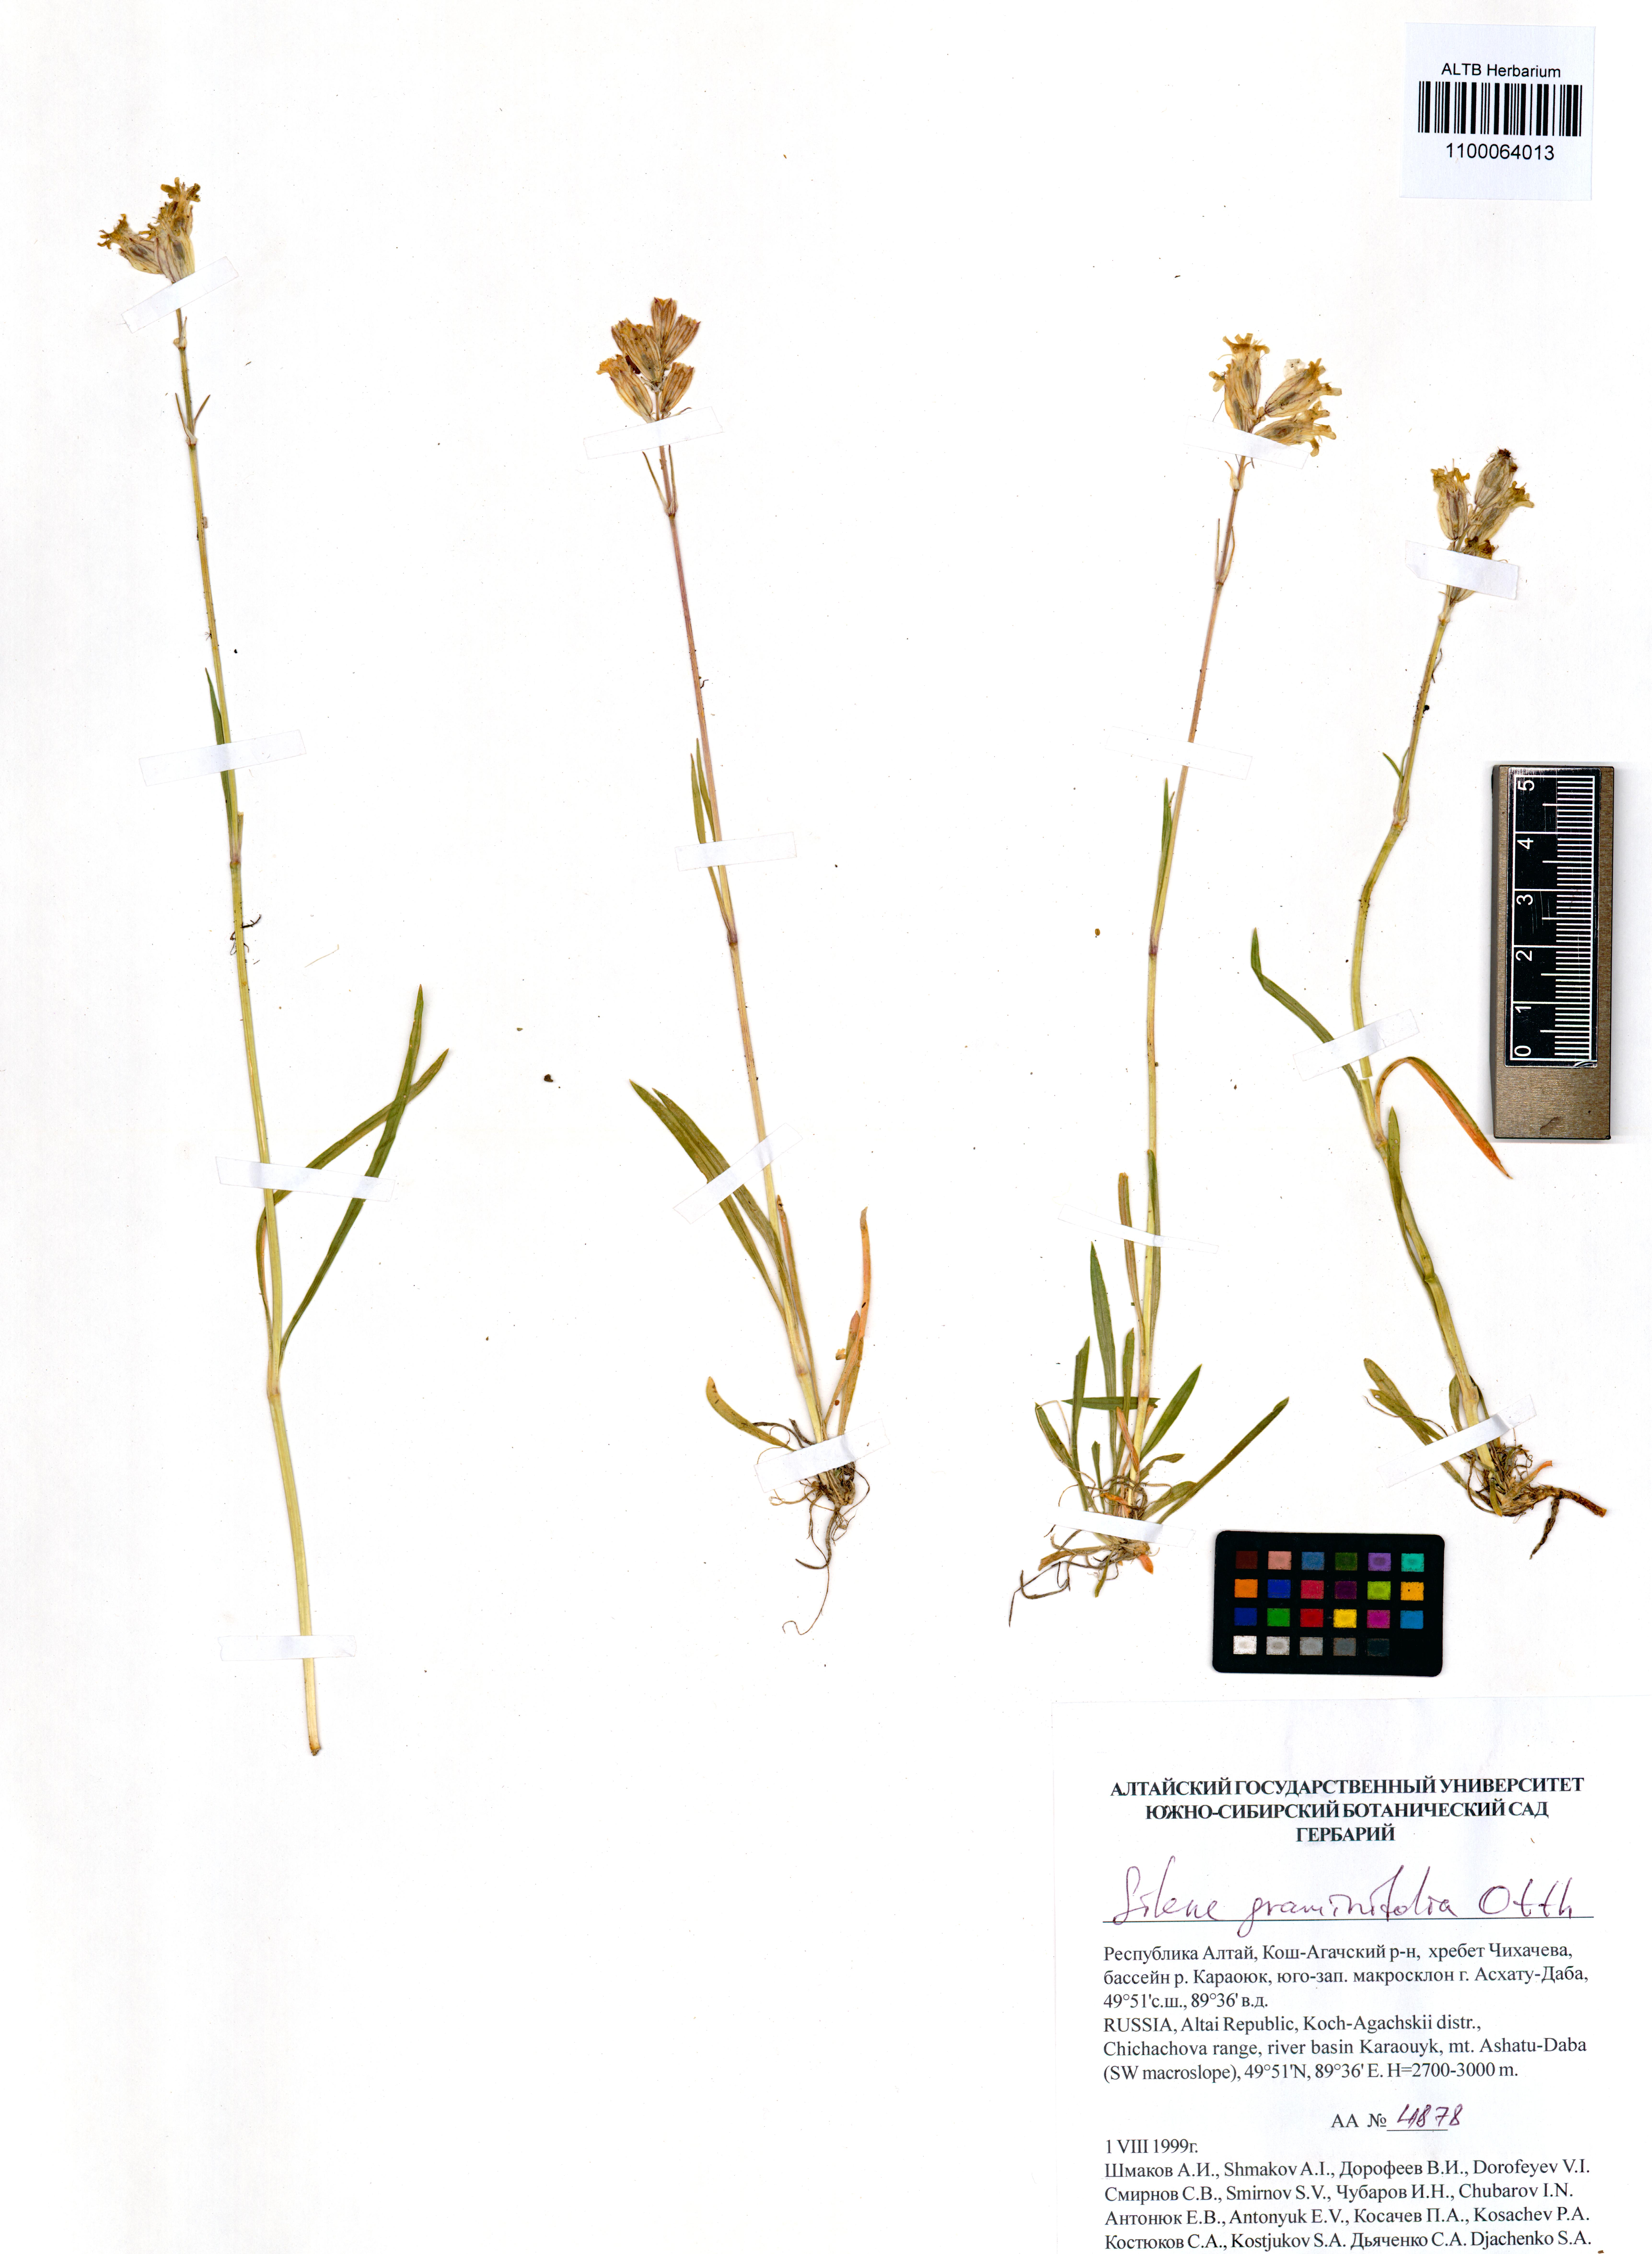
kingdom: Plantae
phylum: Tracheophyta
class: Magnoliopsida
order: Caryophyllales
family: Caryophyllaceae
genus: Silene
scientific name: Silene graminifolia
